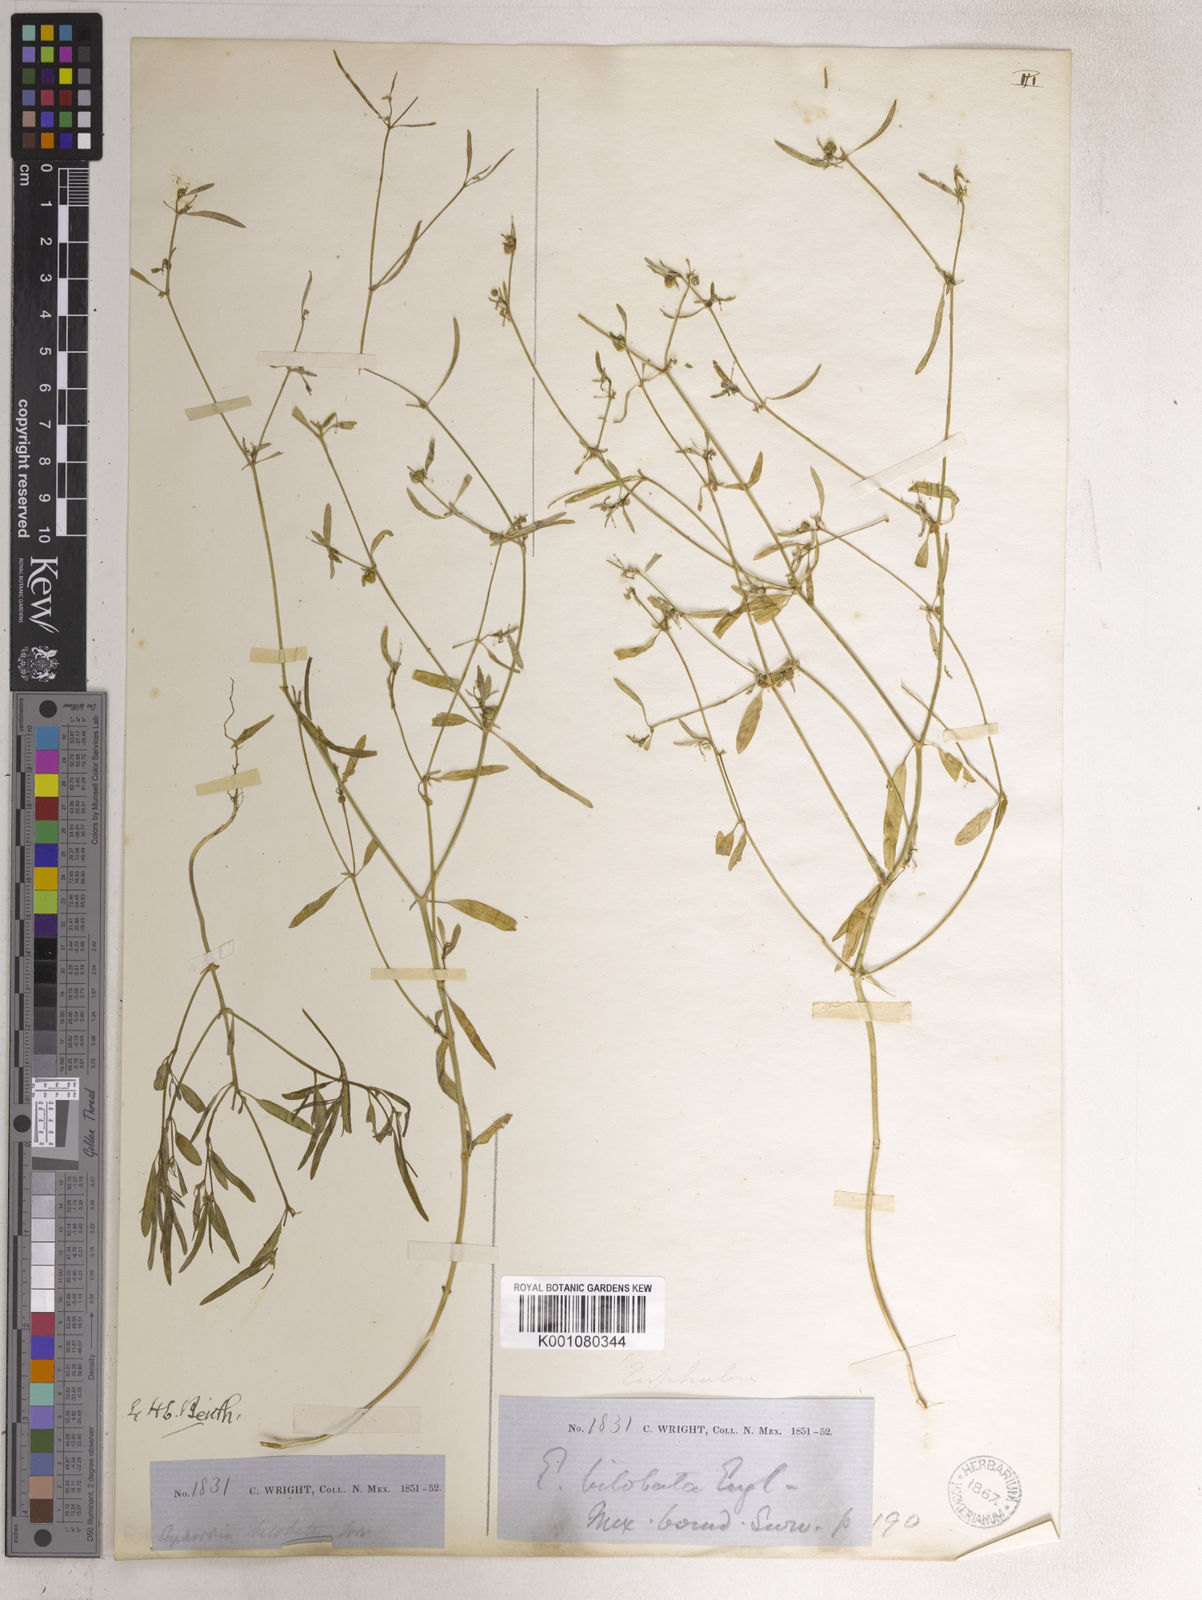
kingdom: Plantae
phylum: Tracheophyta
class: Magnoliopsida
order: Malpighiales
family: Euphorbiaceae
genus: Euphorbia
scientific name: Euphorbia bilobata
